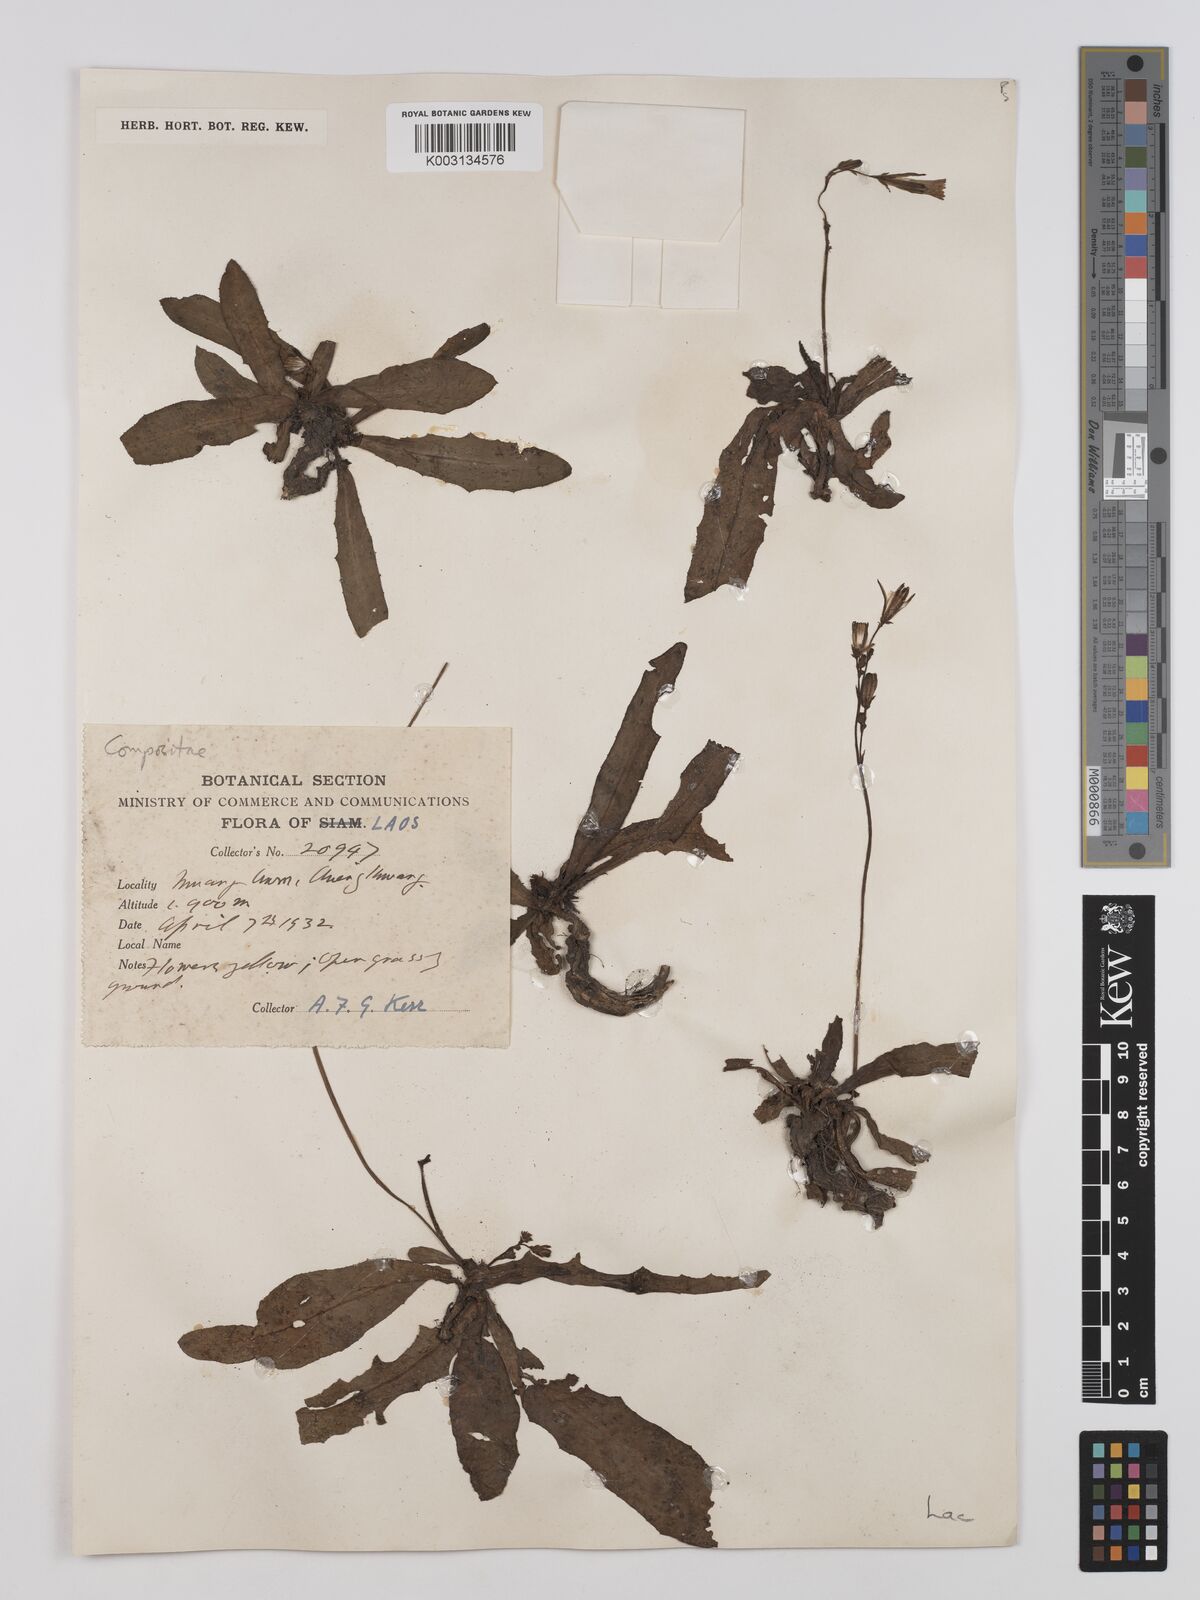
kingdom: Plantae
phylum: Tracheophyta
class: Magnoliopsida
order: Asterales
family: Asteraceae
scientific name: Asteraceae
